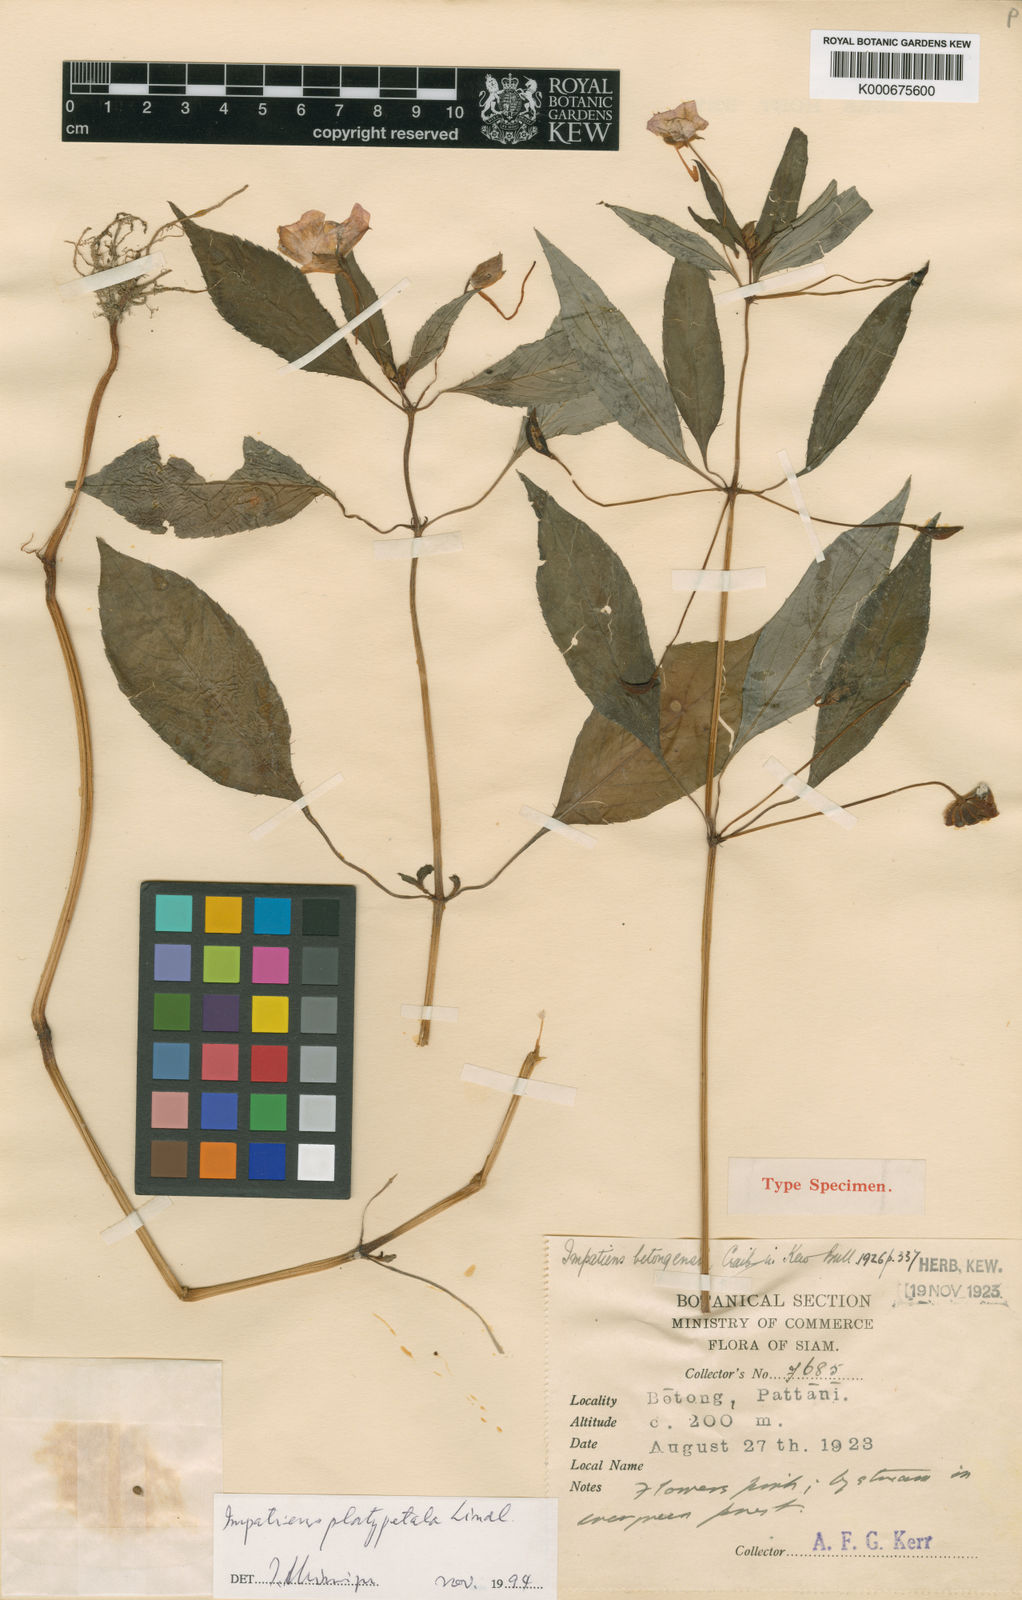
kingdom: Plantae
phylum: Tracheophyta
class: Magnoliopsida
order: Ericales
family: Balsaminaceae
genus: Impatiens
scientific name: Impatiens platypetala
